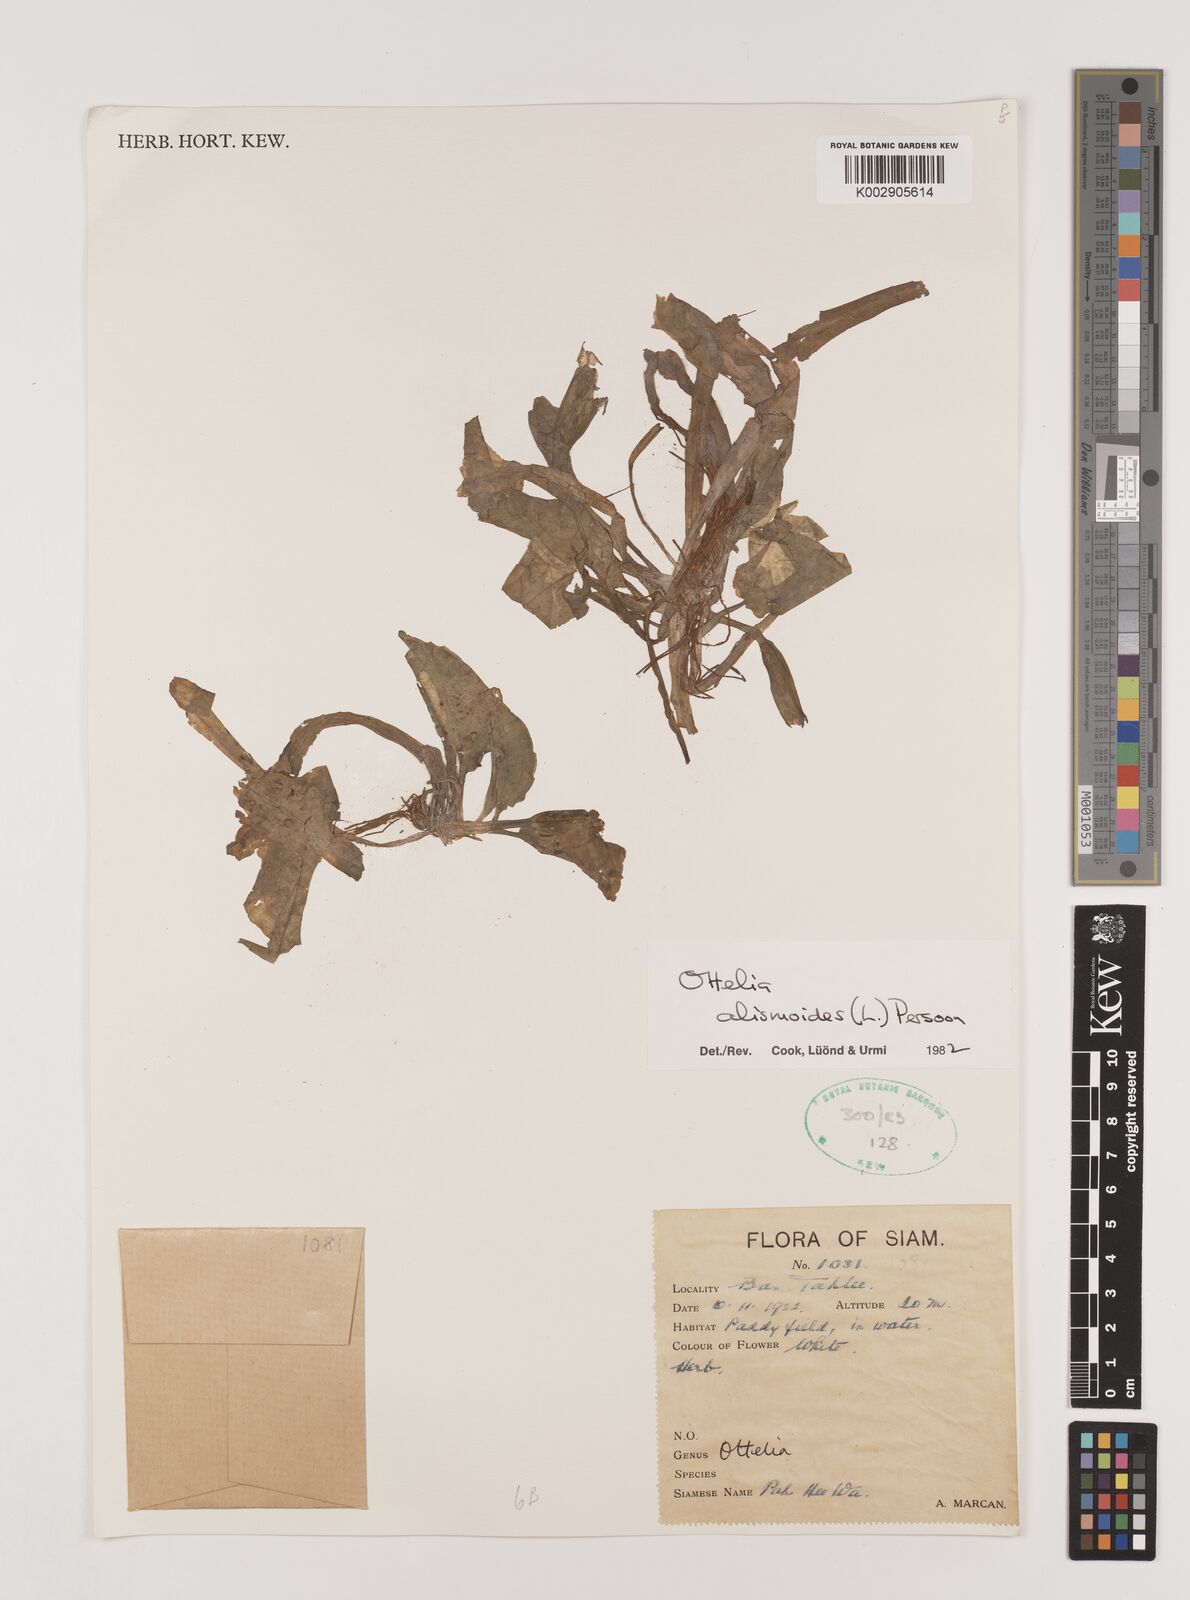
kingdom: Plantae
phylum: Tracheophyta
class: Liliopsida
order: Alismatales
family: Hydrocharitaceae
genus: Ottelia
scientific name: Ottelia alismoides
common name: Duck-lettuce
